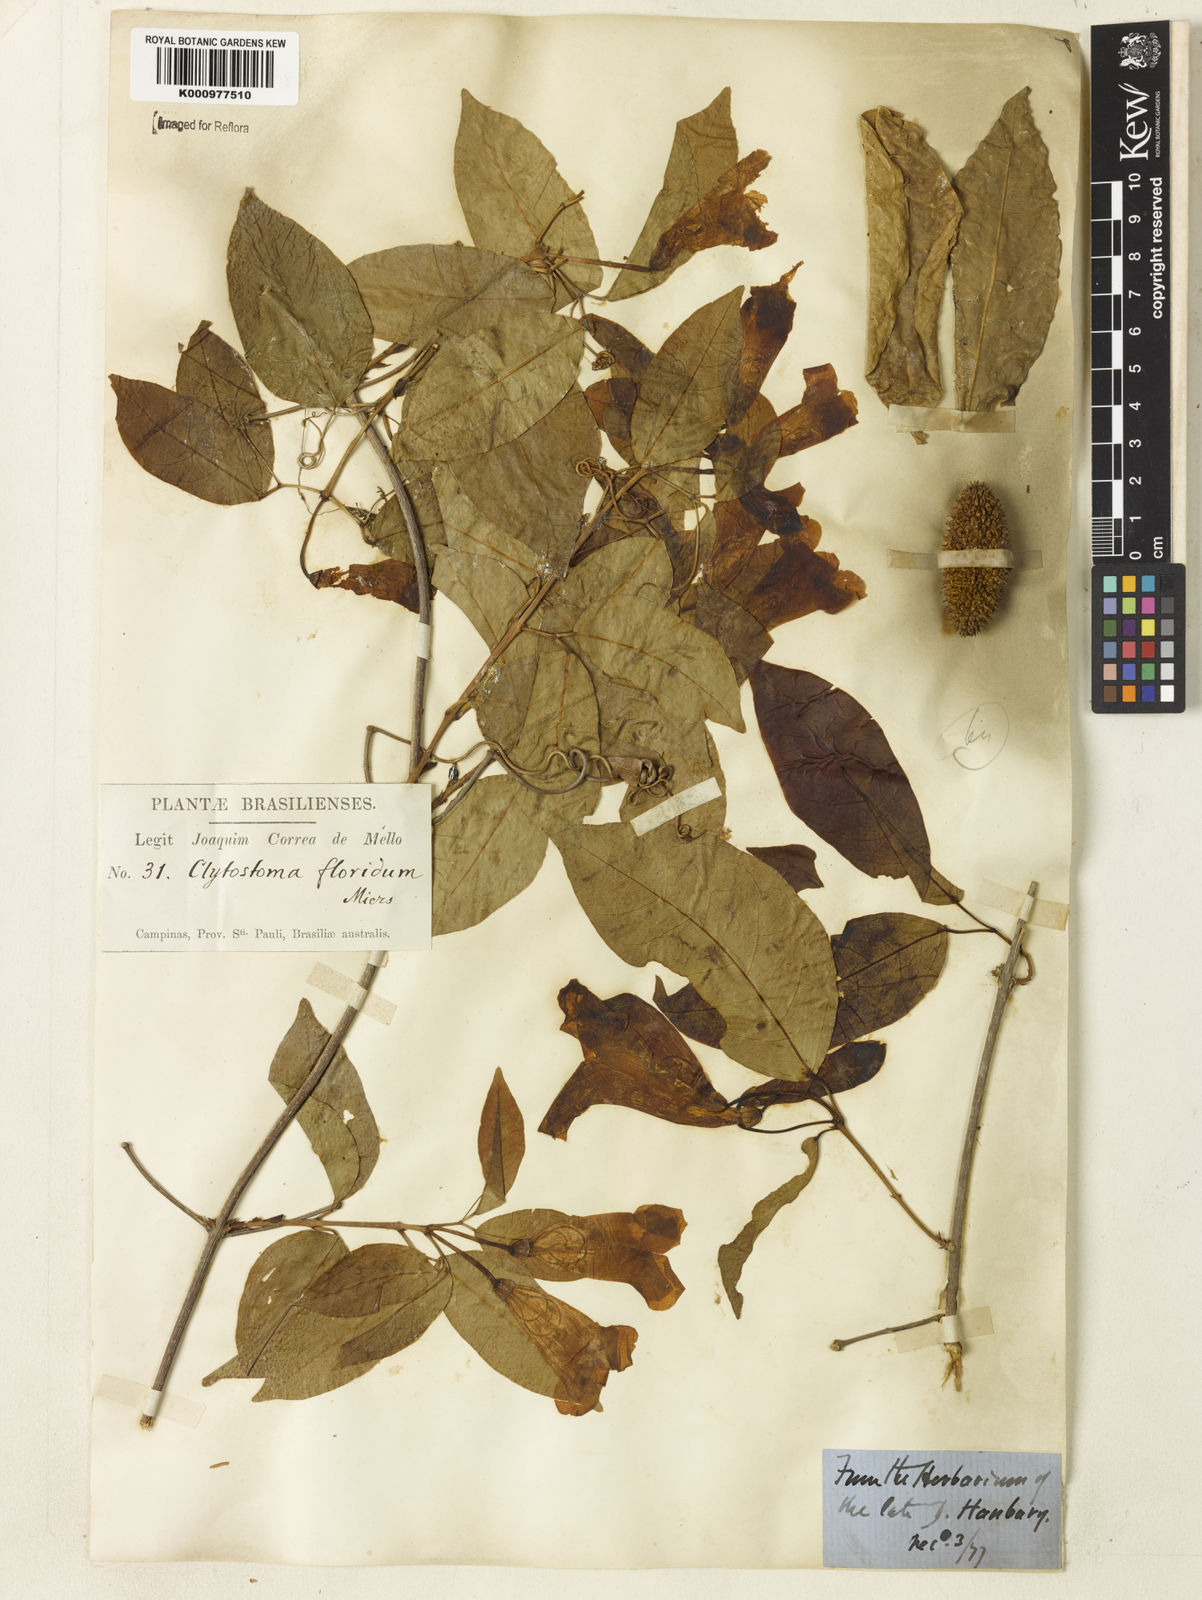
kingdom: Plantae
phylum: Tracheophyta
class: Magnoliopsida
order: Lamiales
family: Bignoniaceae
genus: Bignonia
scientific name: Bignonia binata
